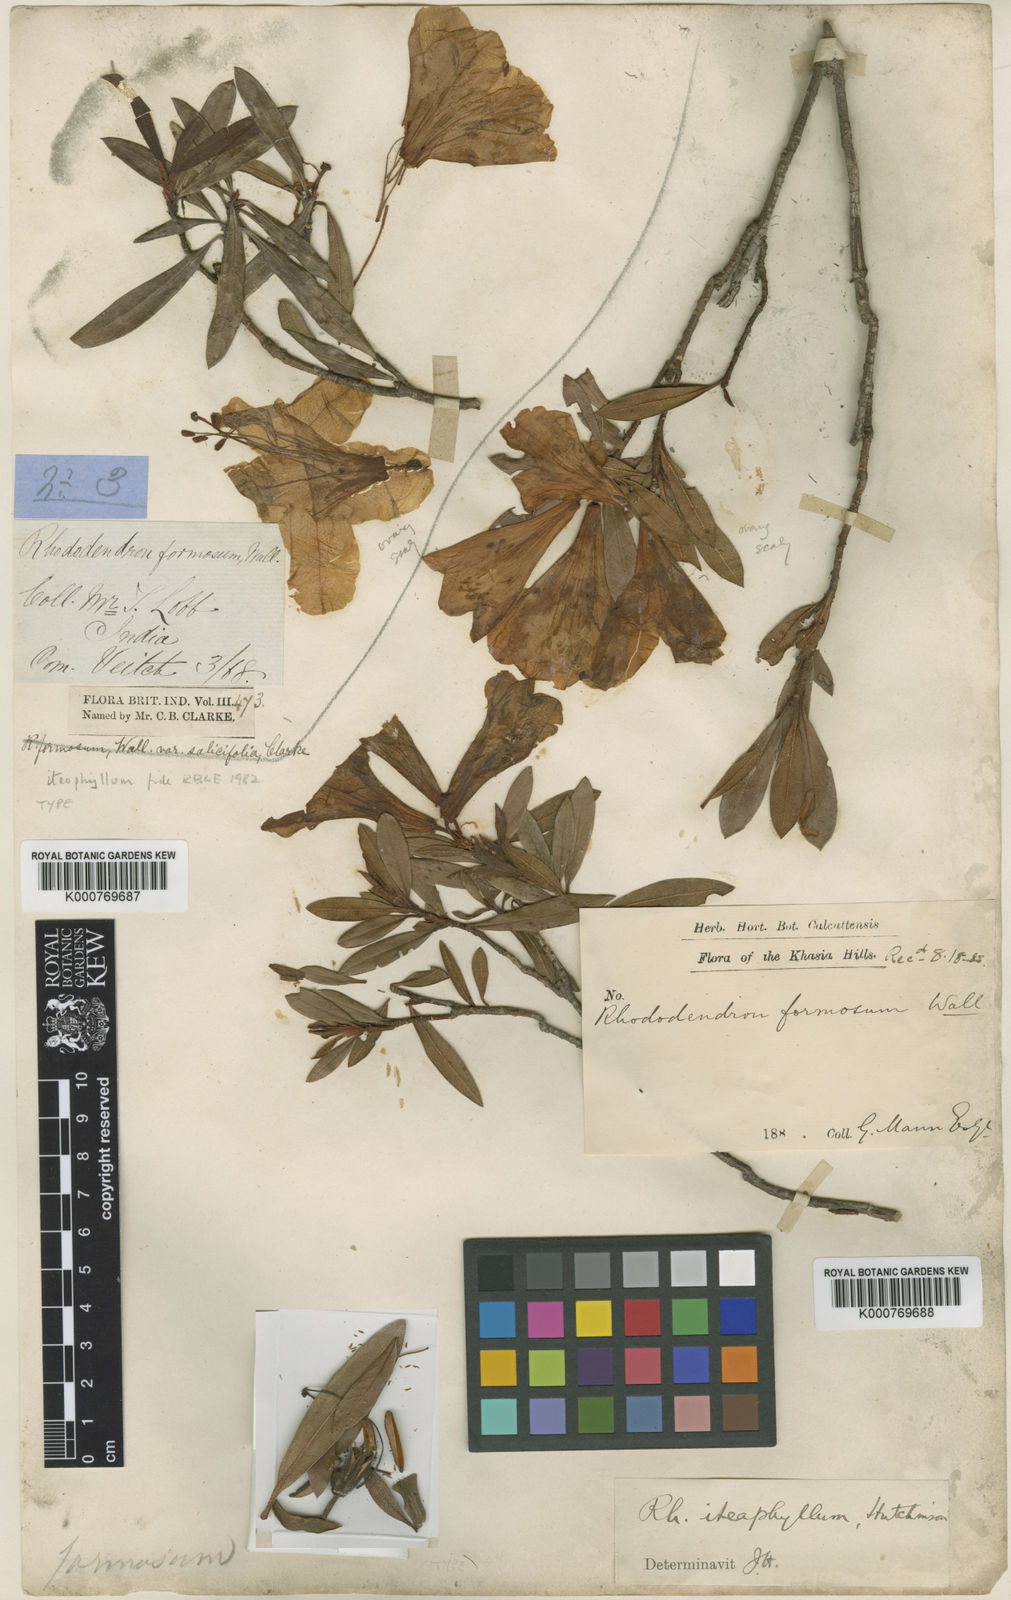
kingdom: Plantae
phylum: Tracheophyta
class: Magnoliopsida
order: Ericales
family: Ericaceae
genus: Rhododendron
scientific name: Rhododendron formosum
